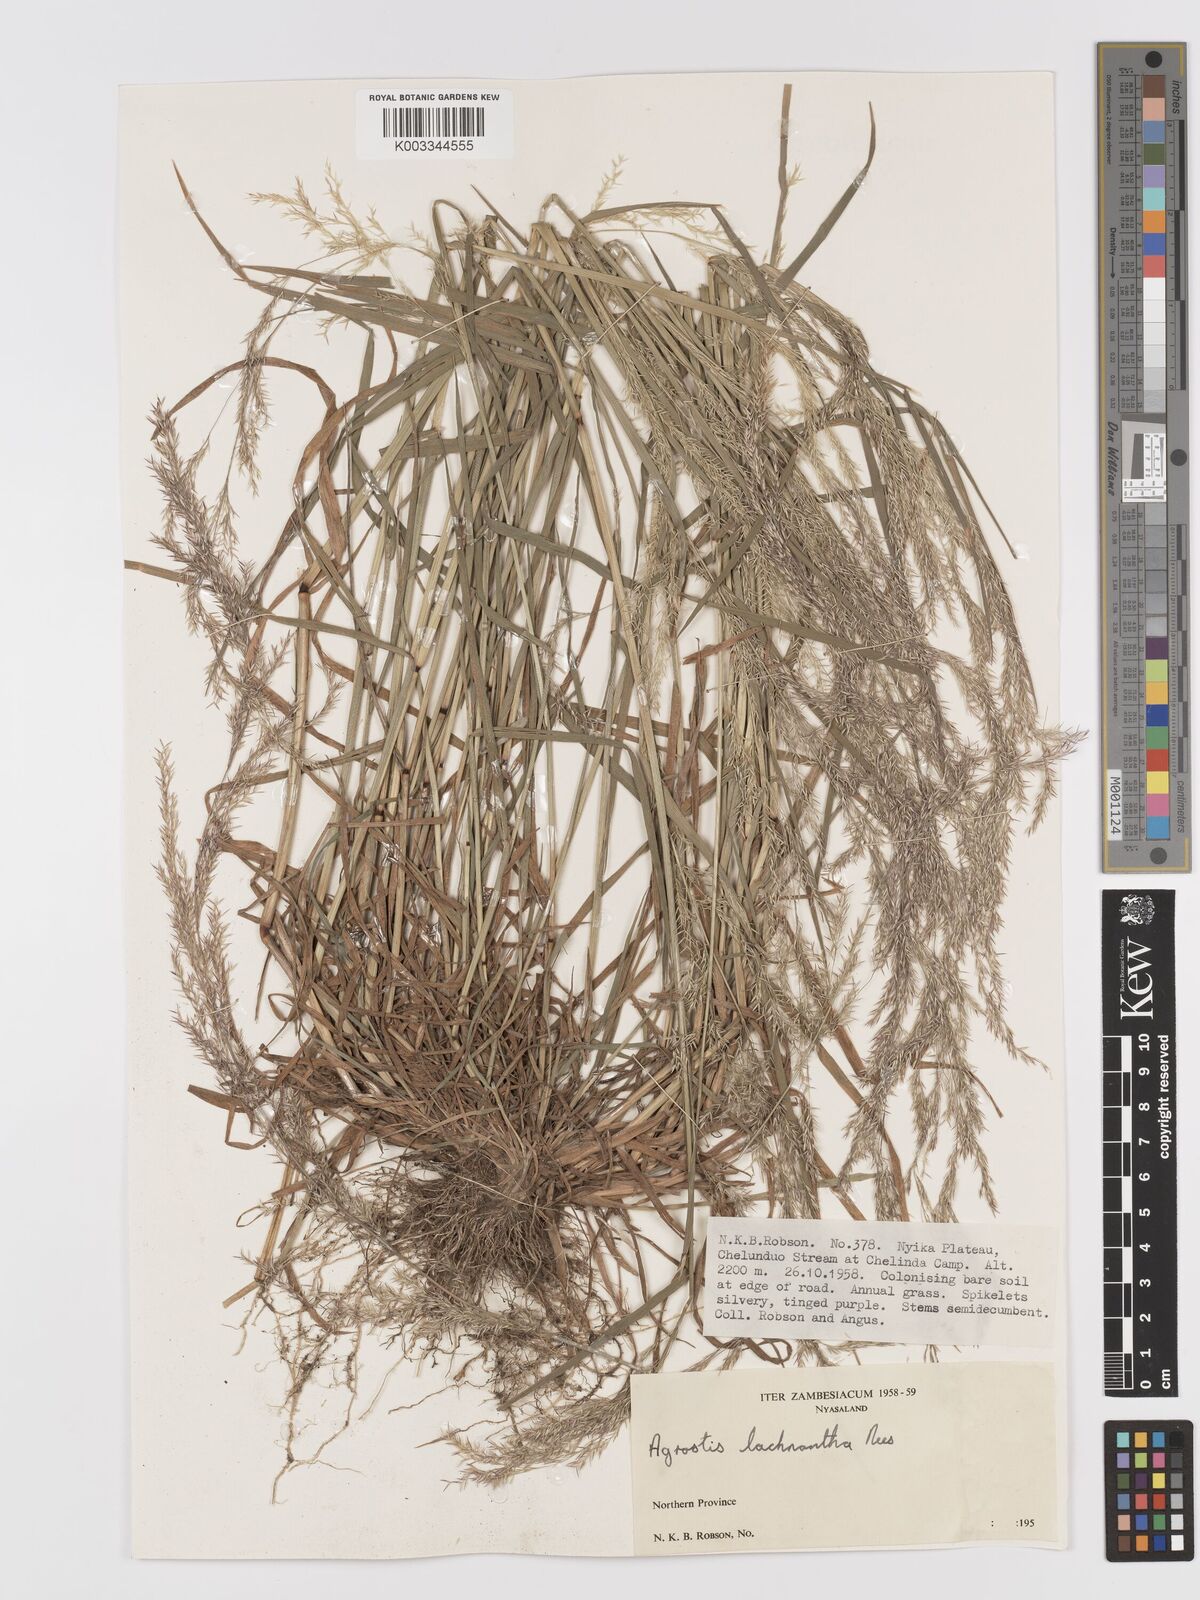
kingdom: Plantae
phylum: Tracheophyta
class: Liliopsida
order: Poales
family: Poaceae
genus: Lachnagrostis
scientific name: Lachnagrostis lachnantha
